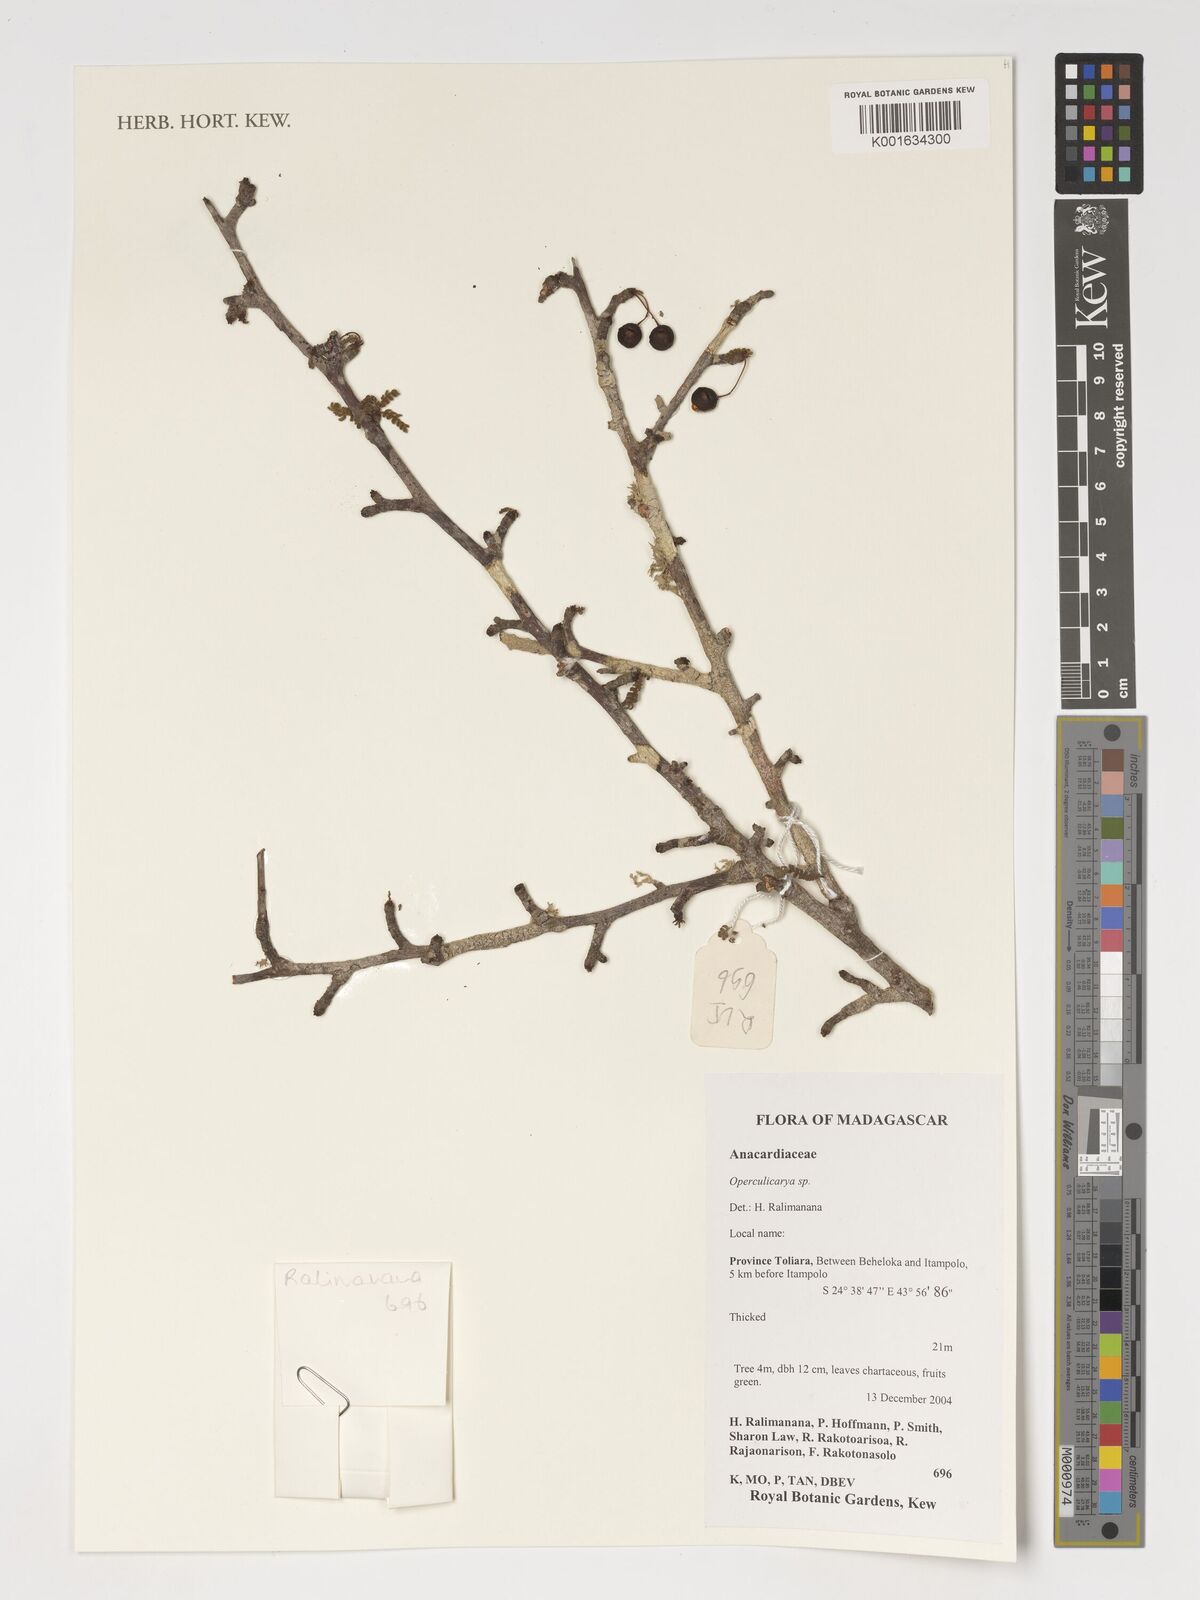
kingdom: Plantae
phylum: Tracheophyta
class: Magnoliopsida
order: Sapindales
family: Anacardiaceae
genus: Operculicarya
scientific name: Operculicarya
